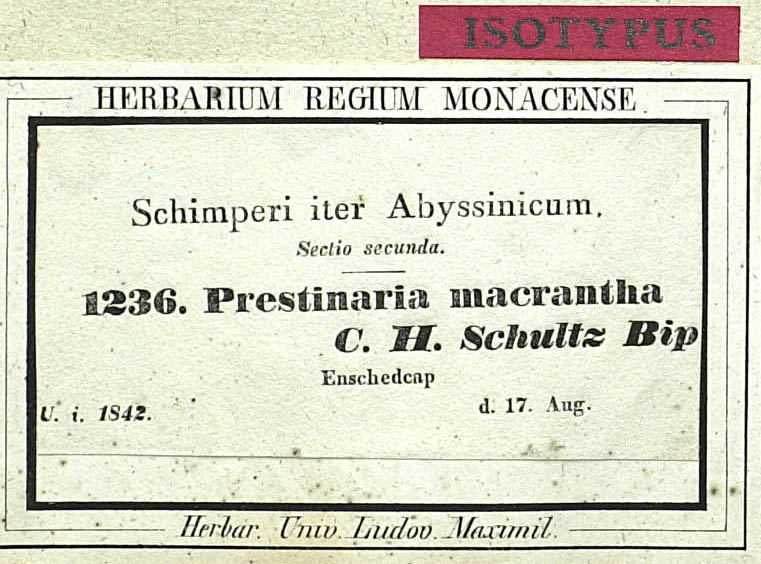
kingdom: Plantae
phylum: Tracheophyta
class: Magnoliopsida
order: Asterales
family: Asteraceae
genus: Bidens
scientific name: Bidens macroptera
